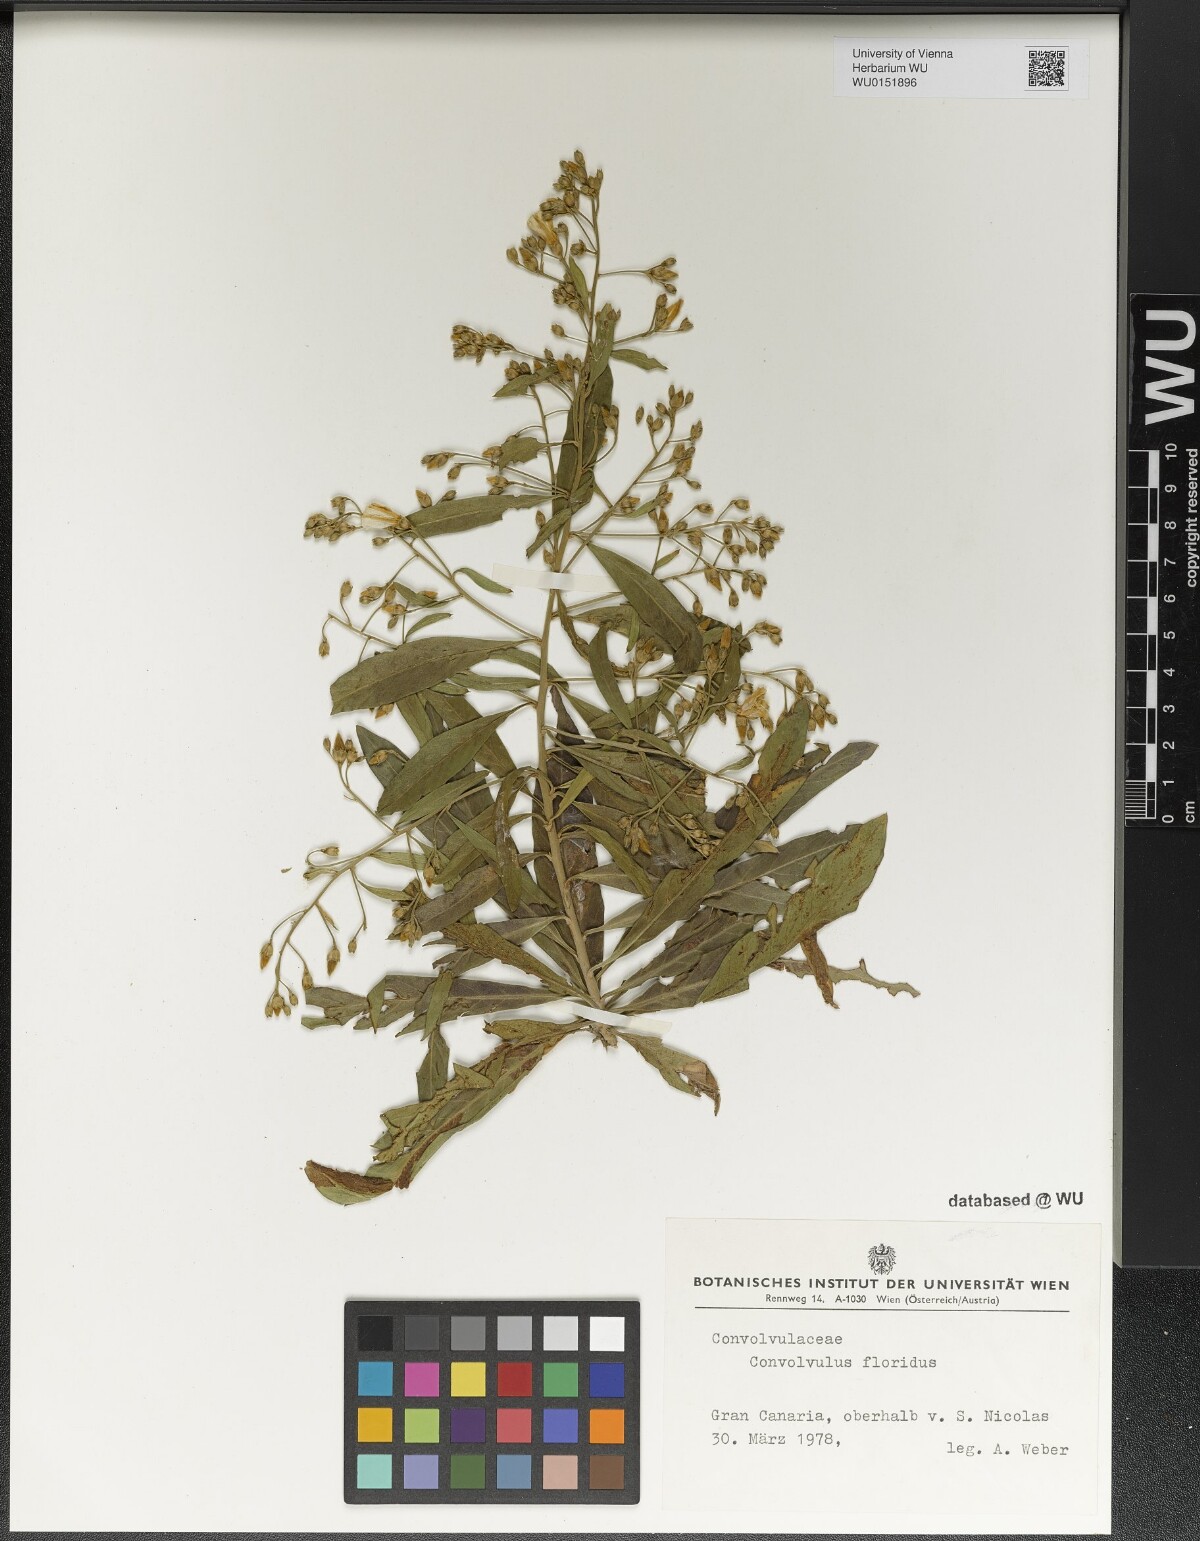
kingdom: Plantae
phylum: Tracheophyta
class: Magnoliopsida
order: Solanales
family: Convolvulaceae
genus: Convolvulus
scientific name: Convolvulus floridus
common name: Guadil
